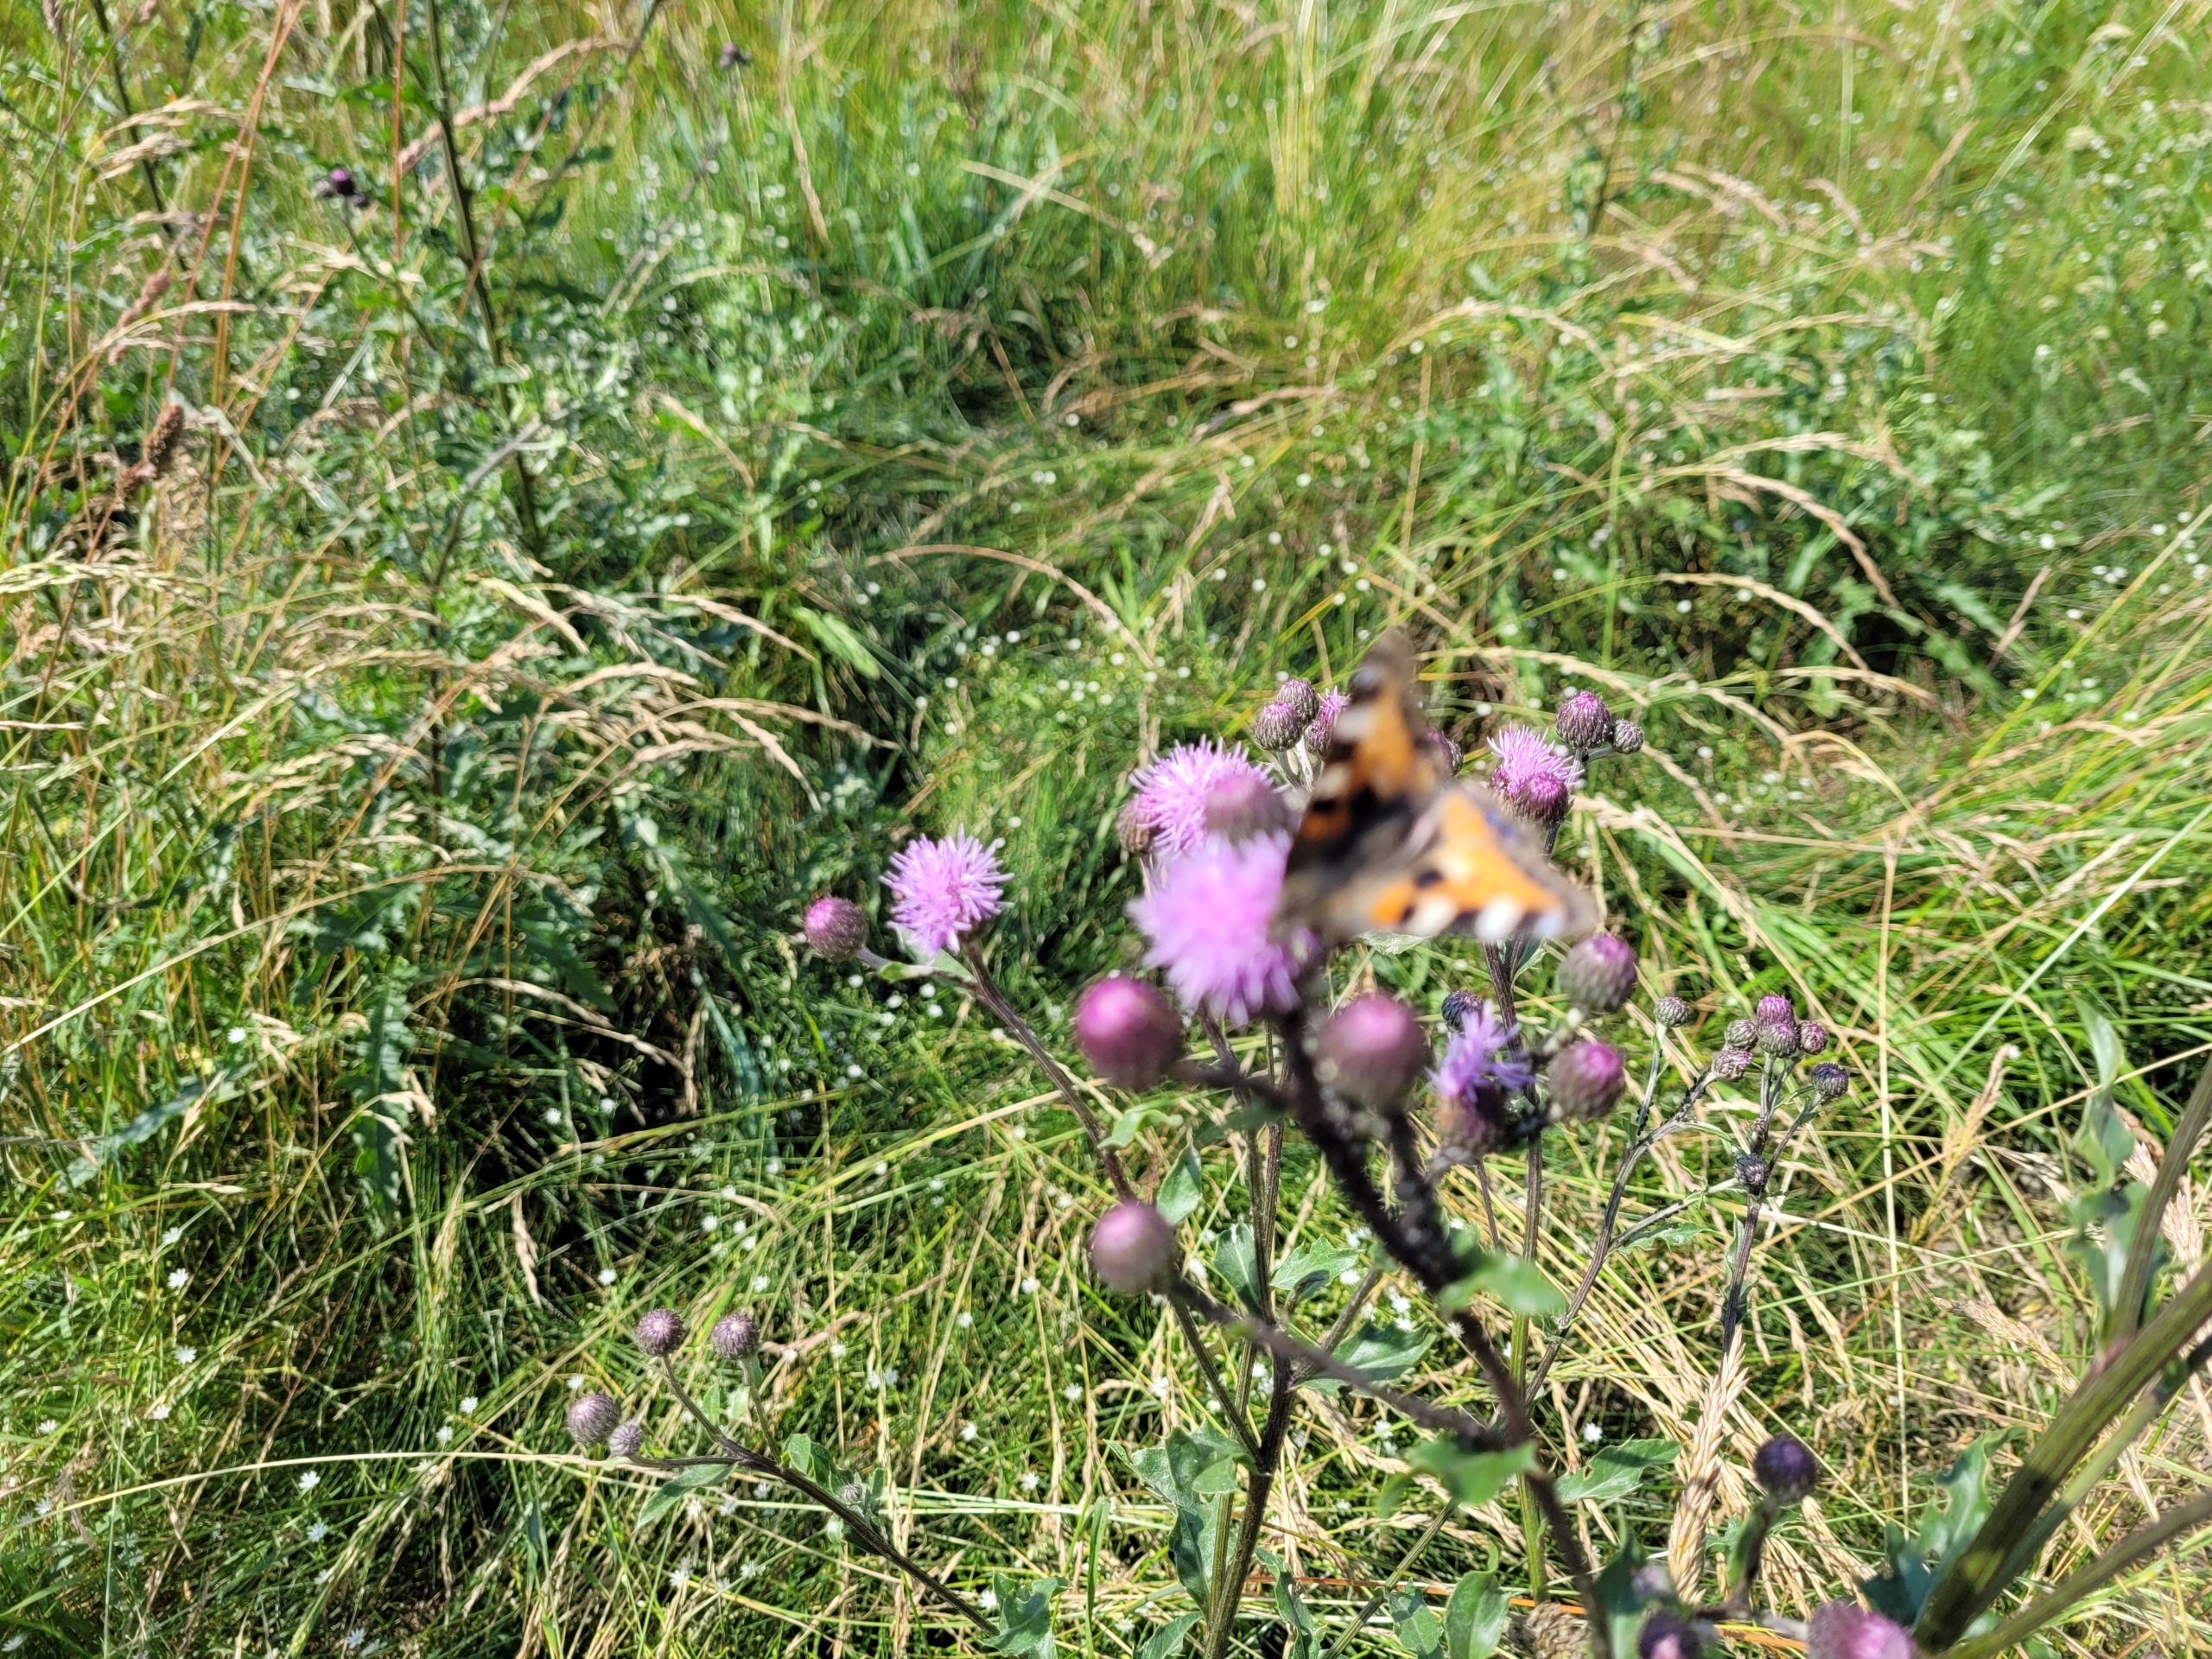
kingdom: Animalia
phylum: Arthropoda
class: Insecta
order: Lepidoptera
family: Nymphalidae
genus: Aglais
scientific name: Aglais urticae
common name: Nældens takvinge
